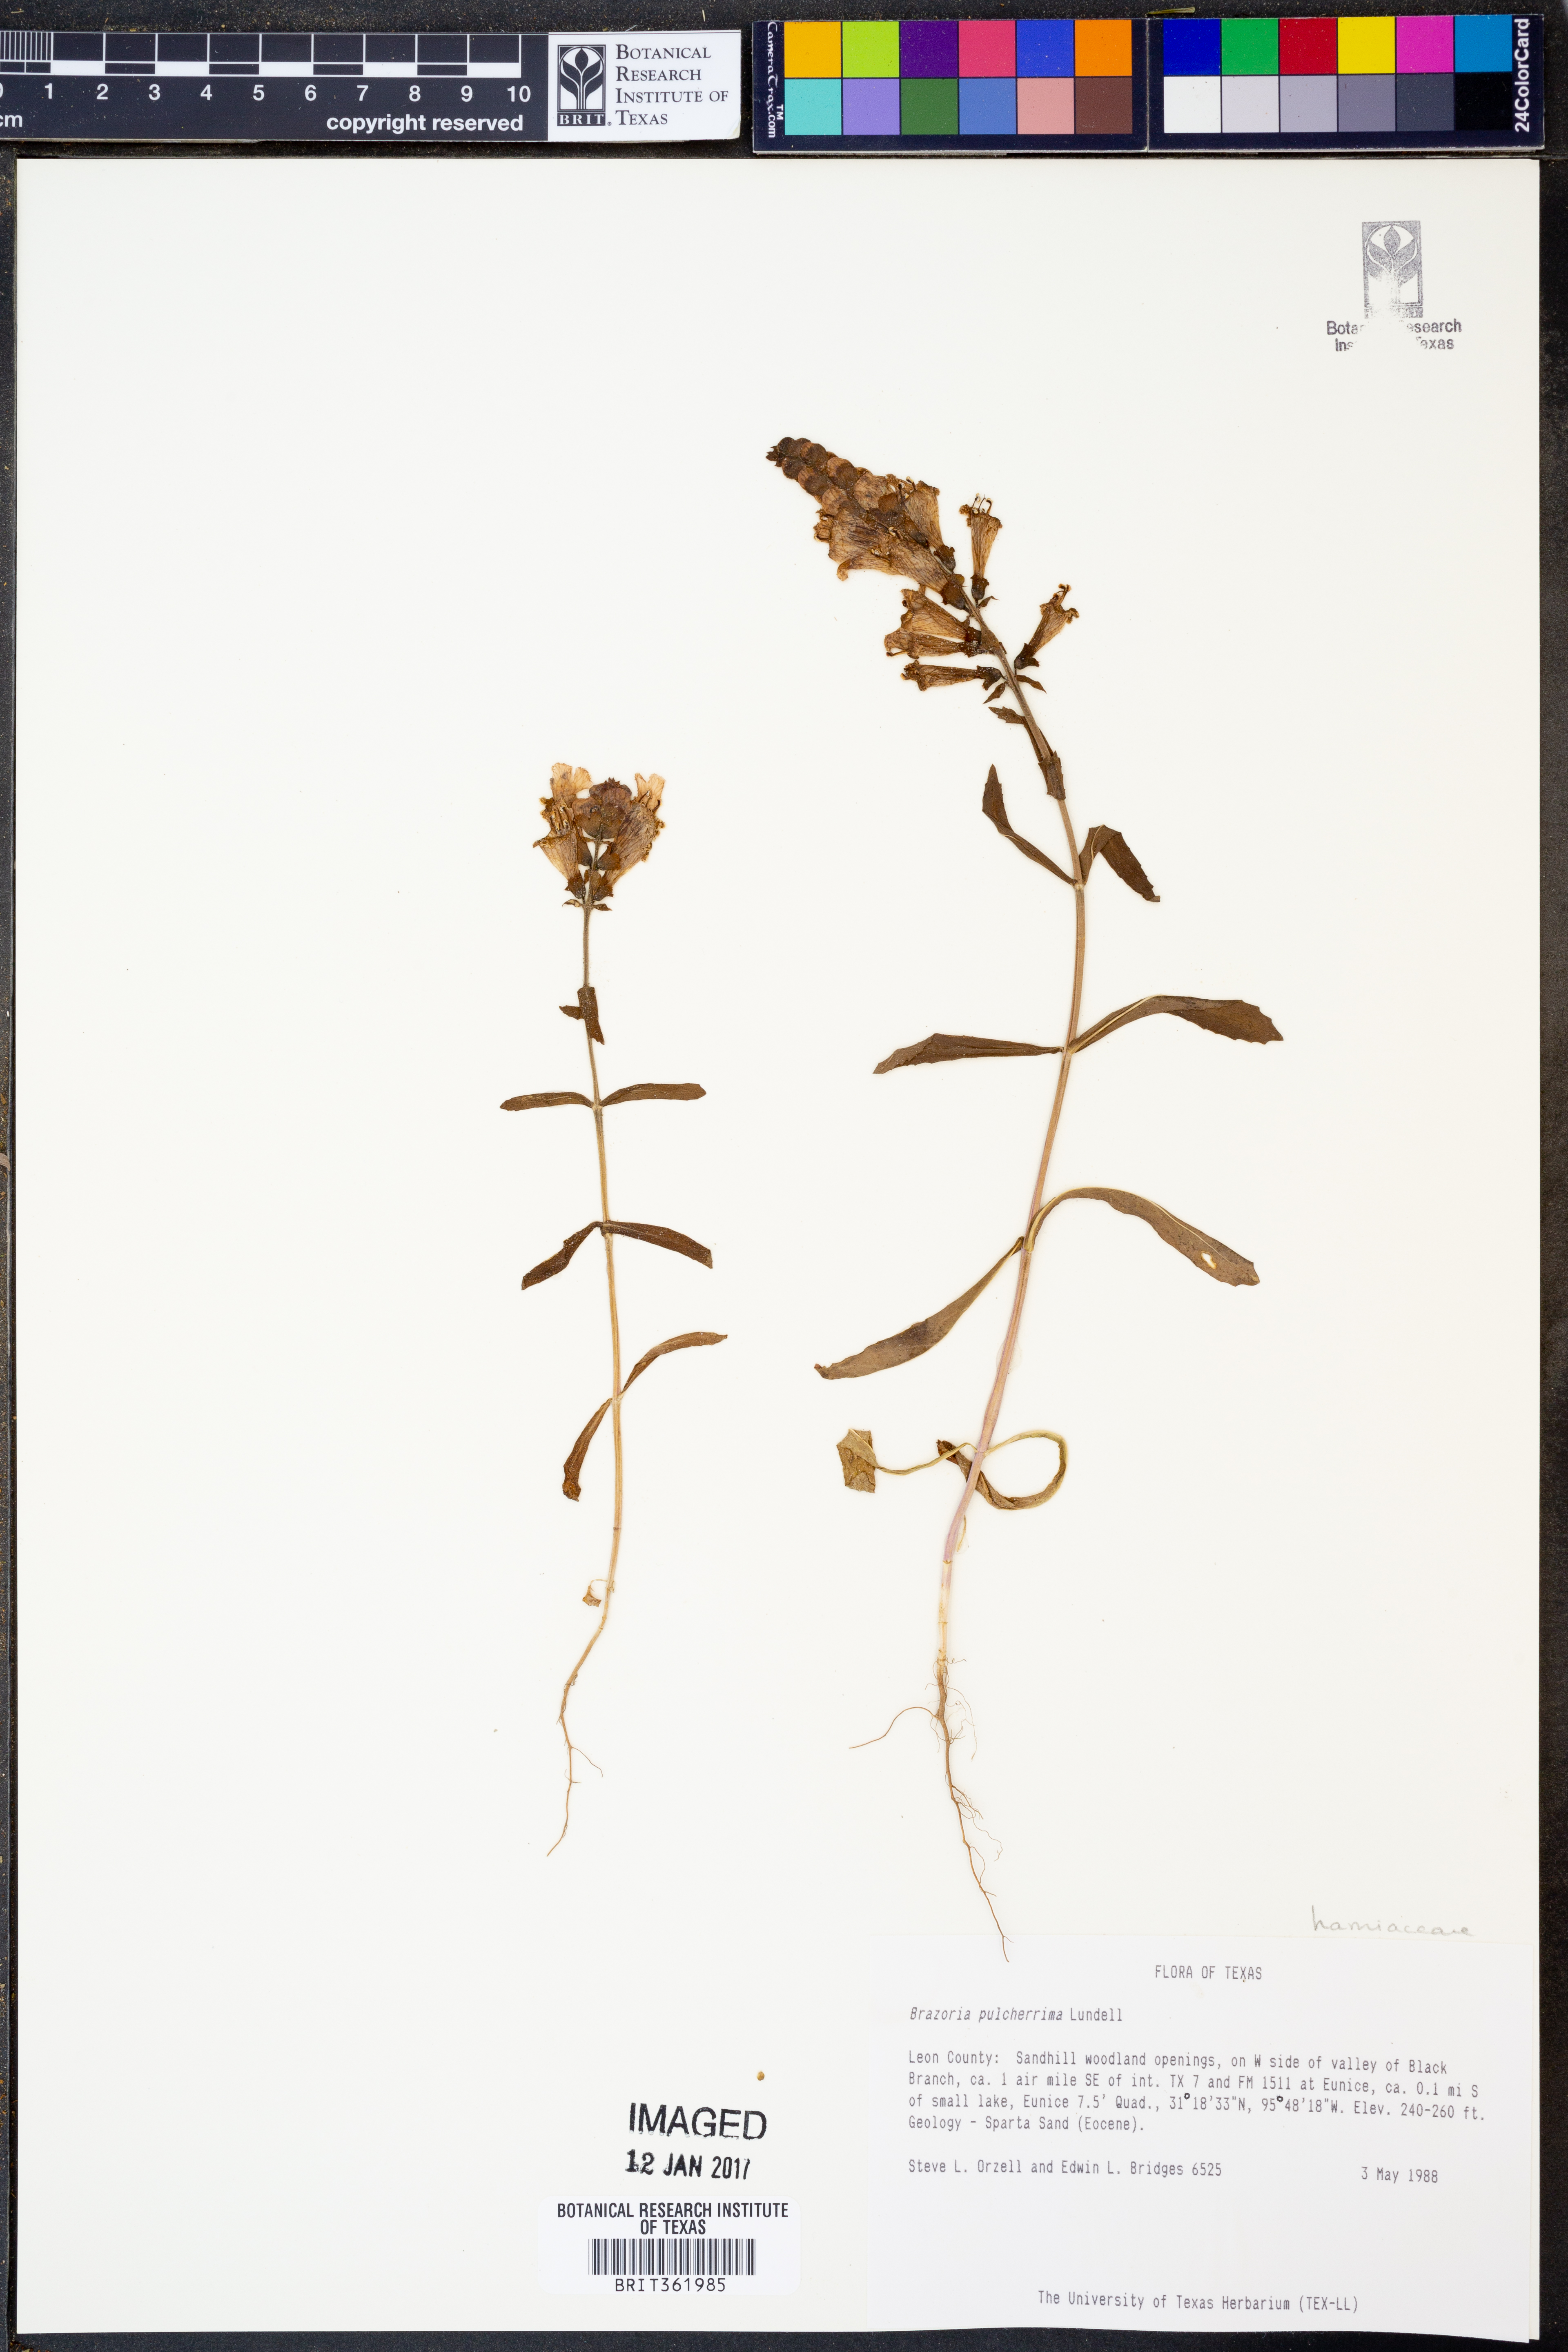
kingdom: Plantae
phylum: Tracheophyta
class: Magnoliopsida
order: Lamiales
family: Lamiaceae
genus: Brazoria
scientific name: Brazoria truncata
